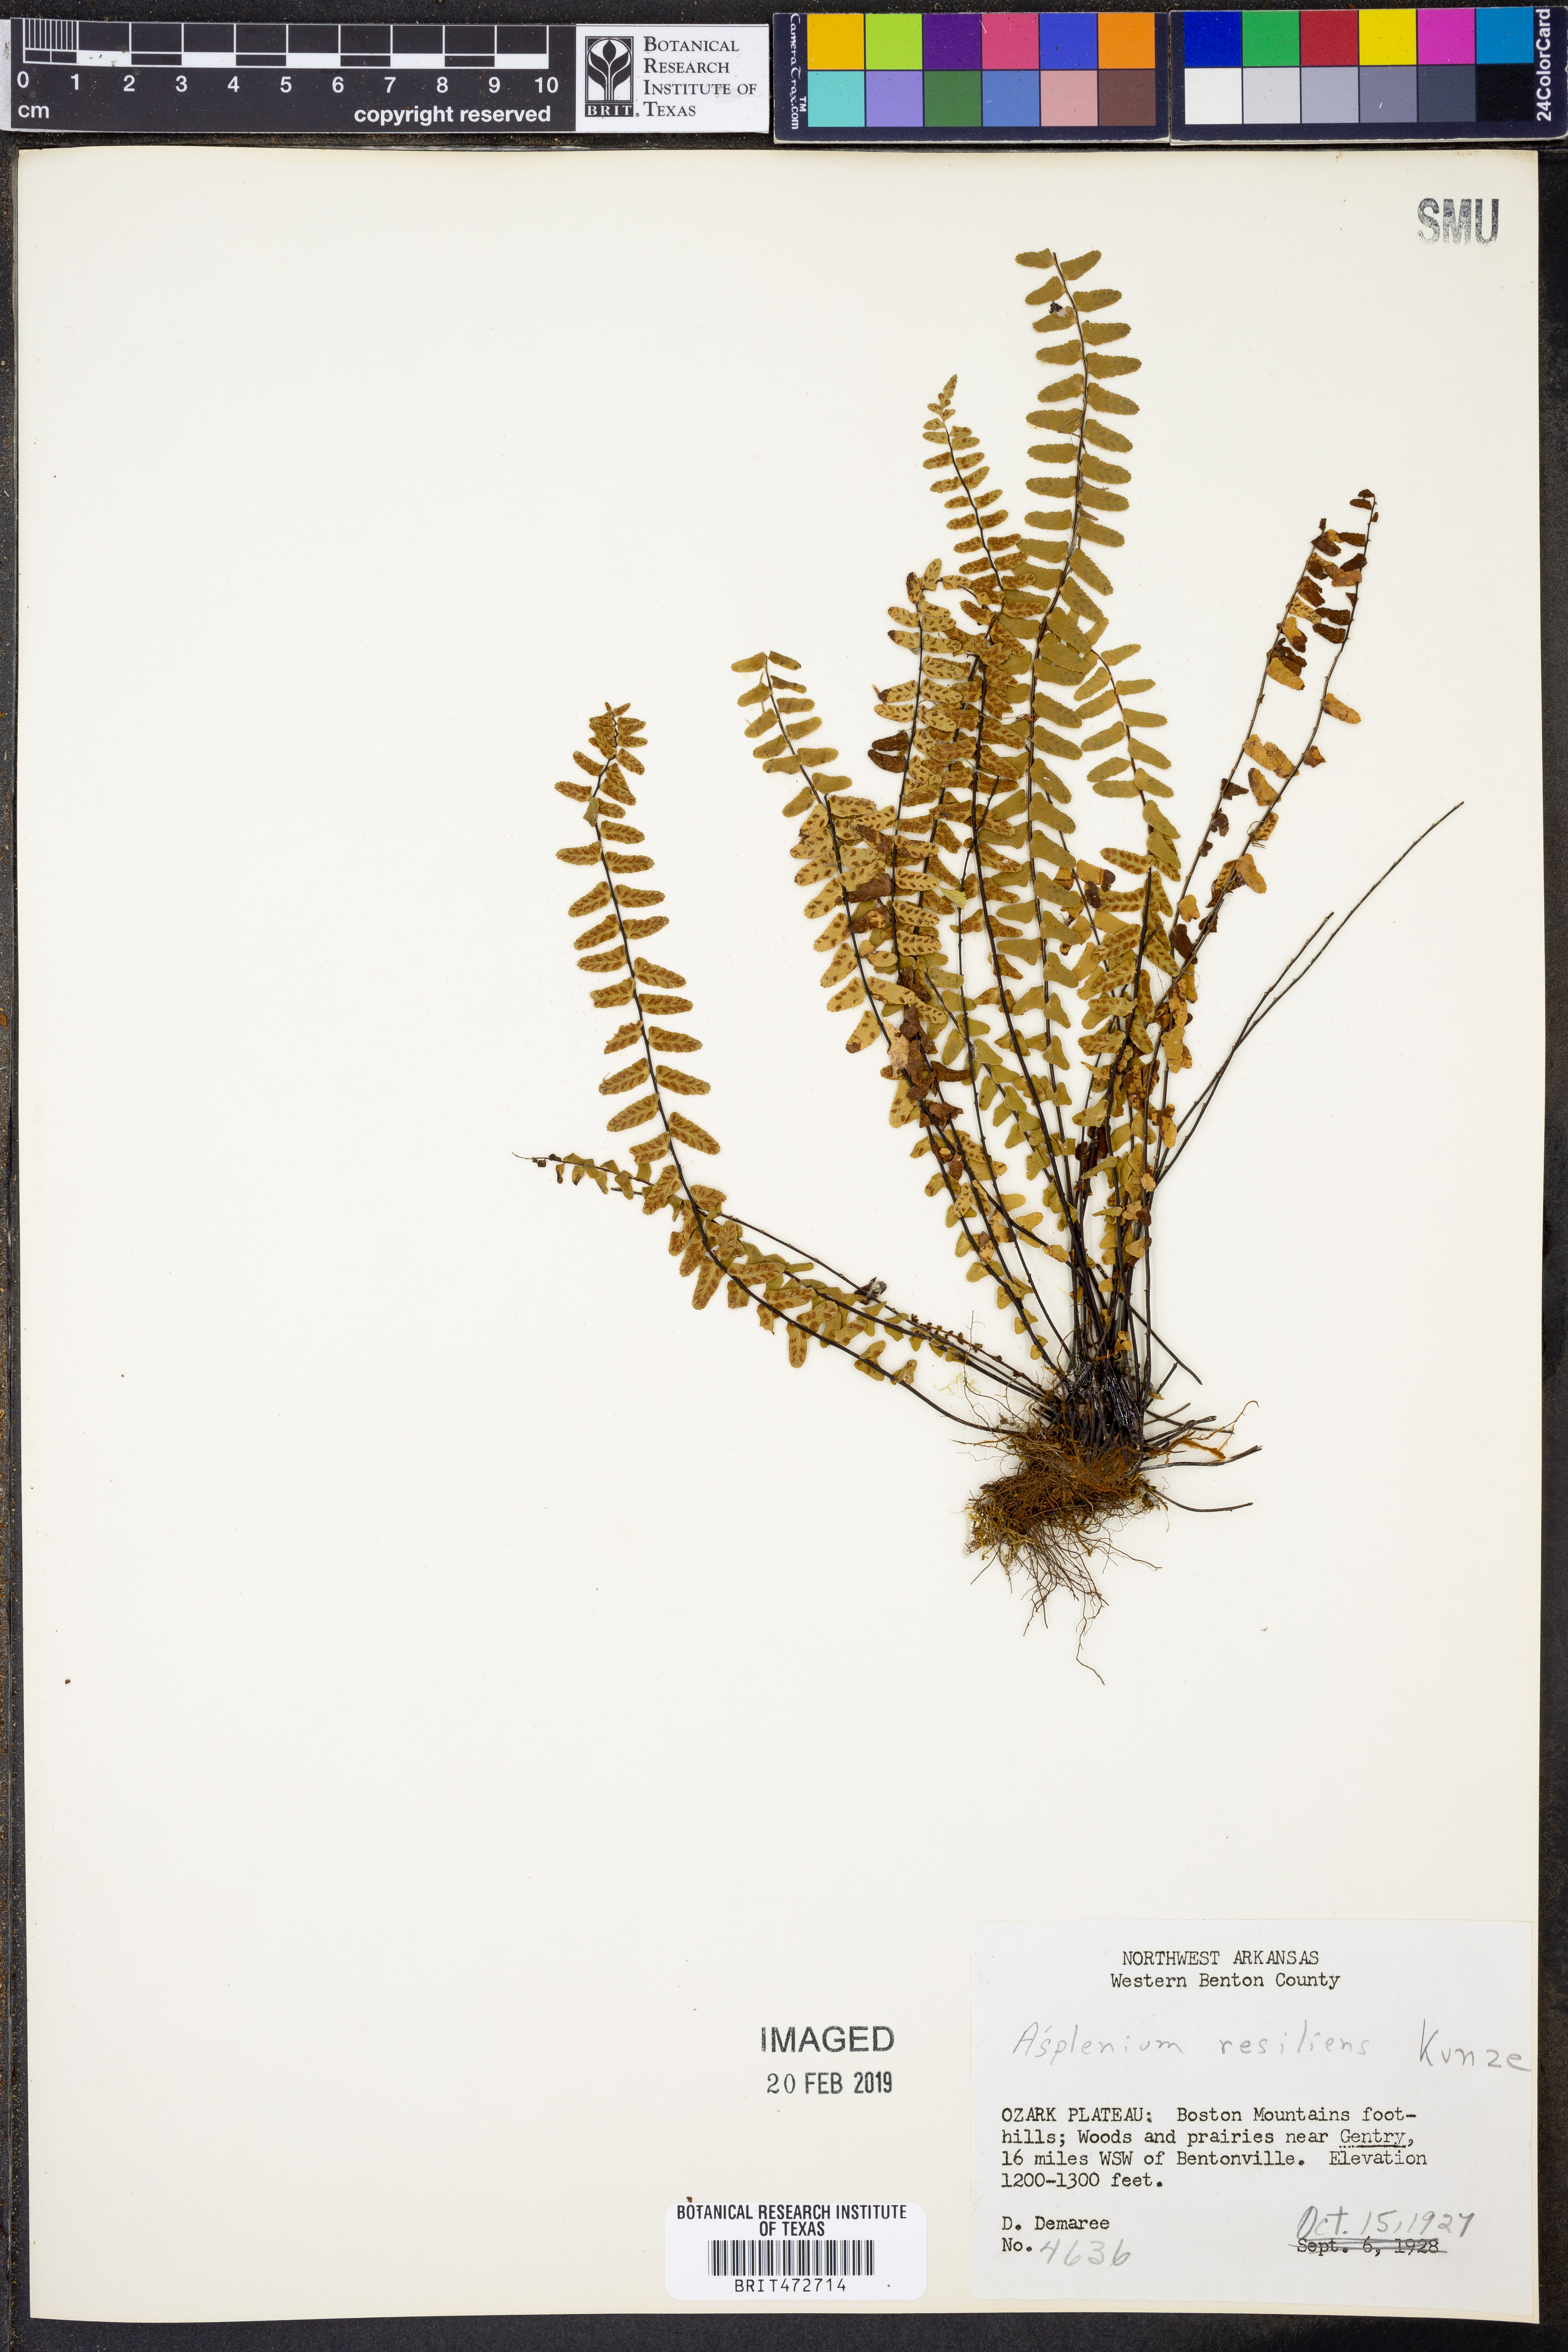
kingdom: Plantae
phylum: Tracheophyta
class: Polypodiopsida
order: Polypodiales
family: Aspleniaceae
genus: Asplenium
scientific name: Asplenium resiliens
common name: Blackstem spleenwort
